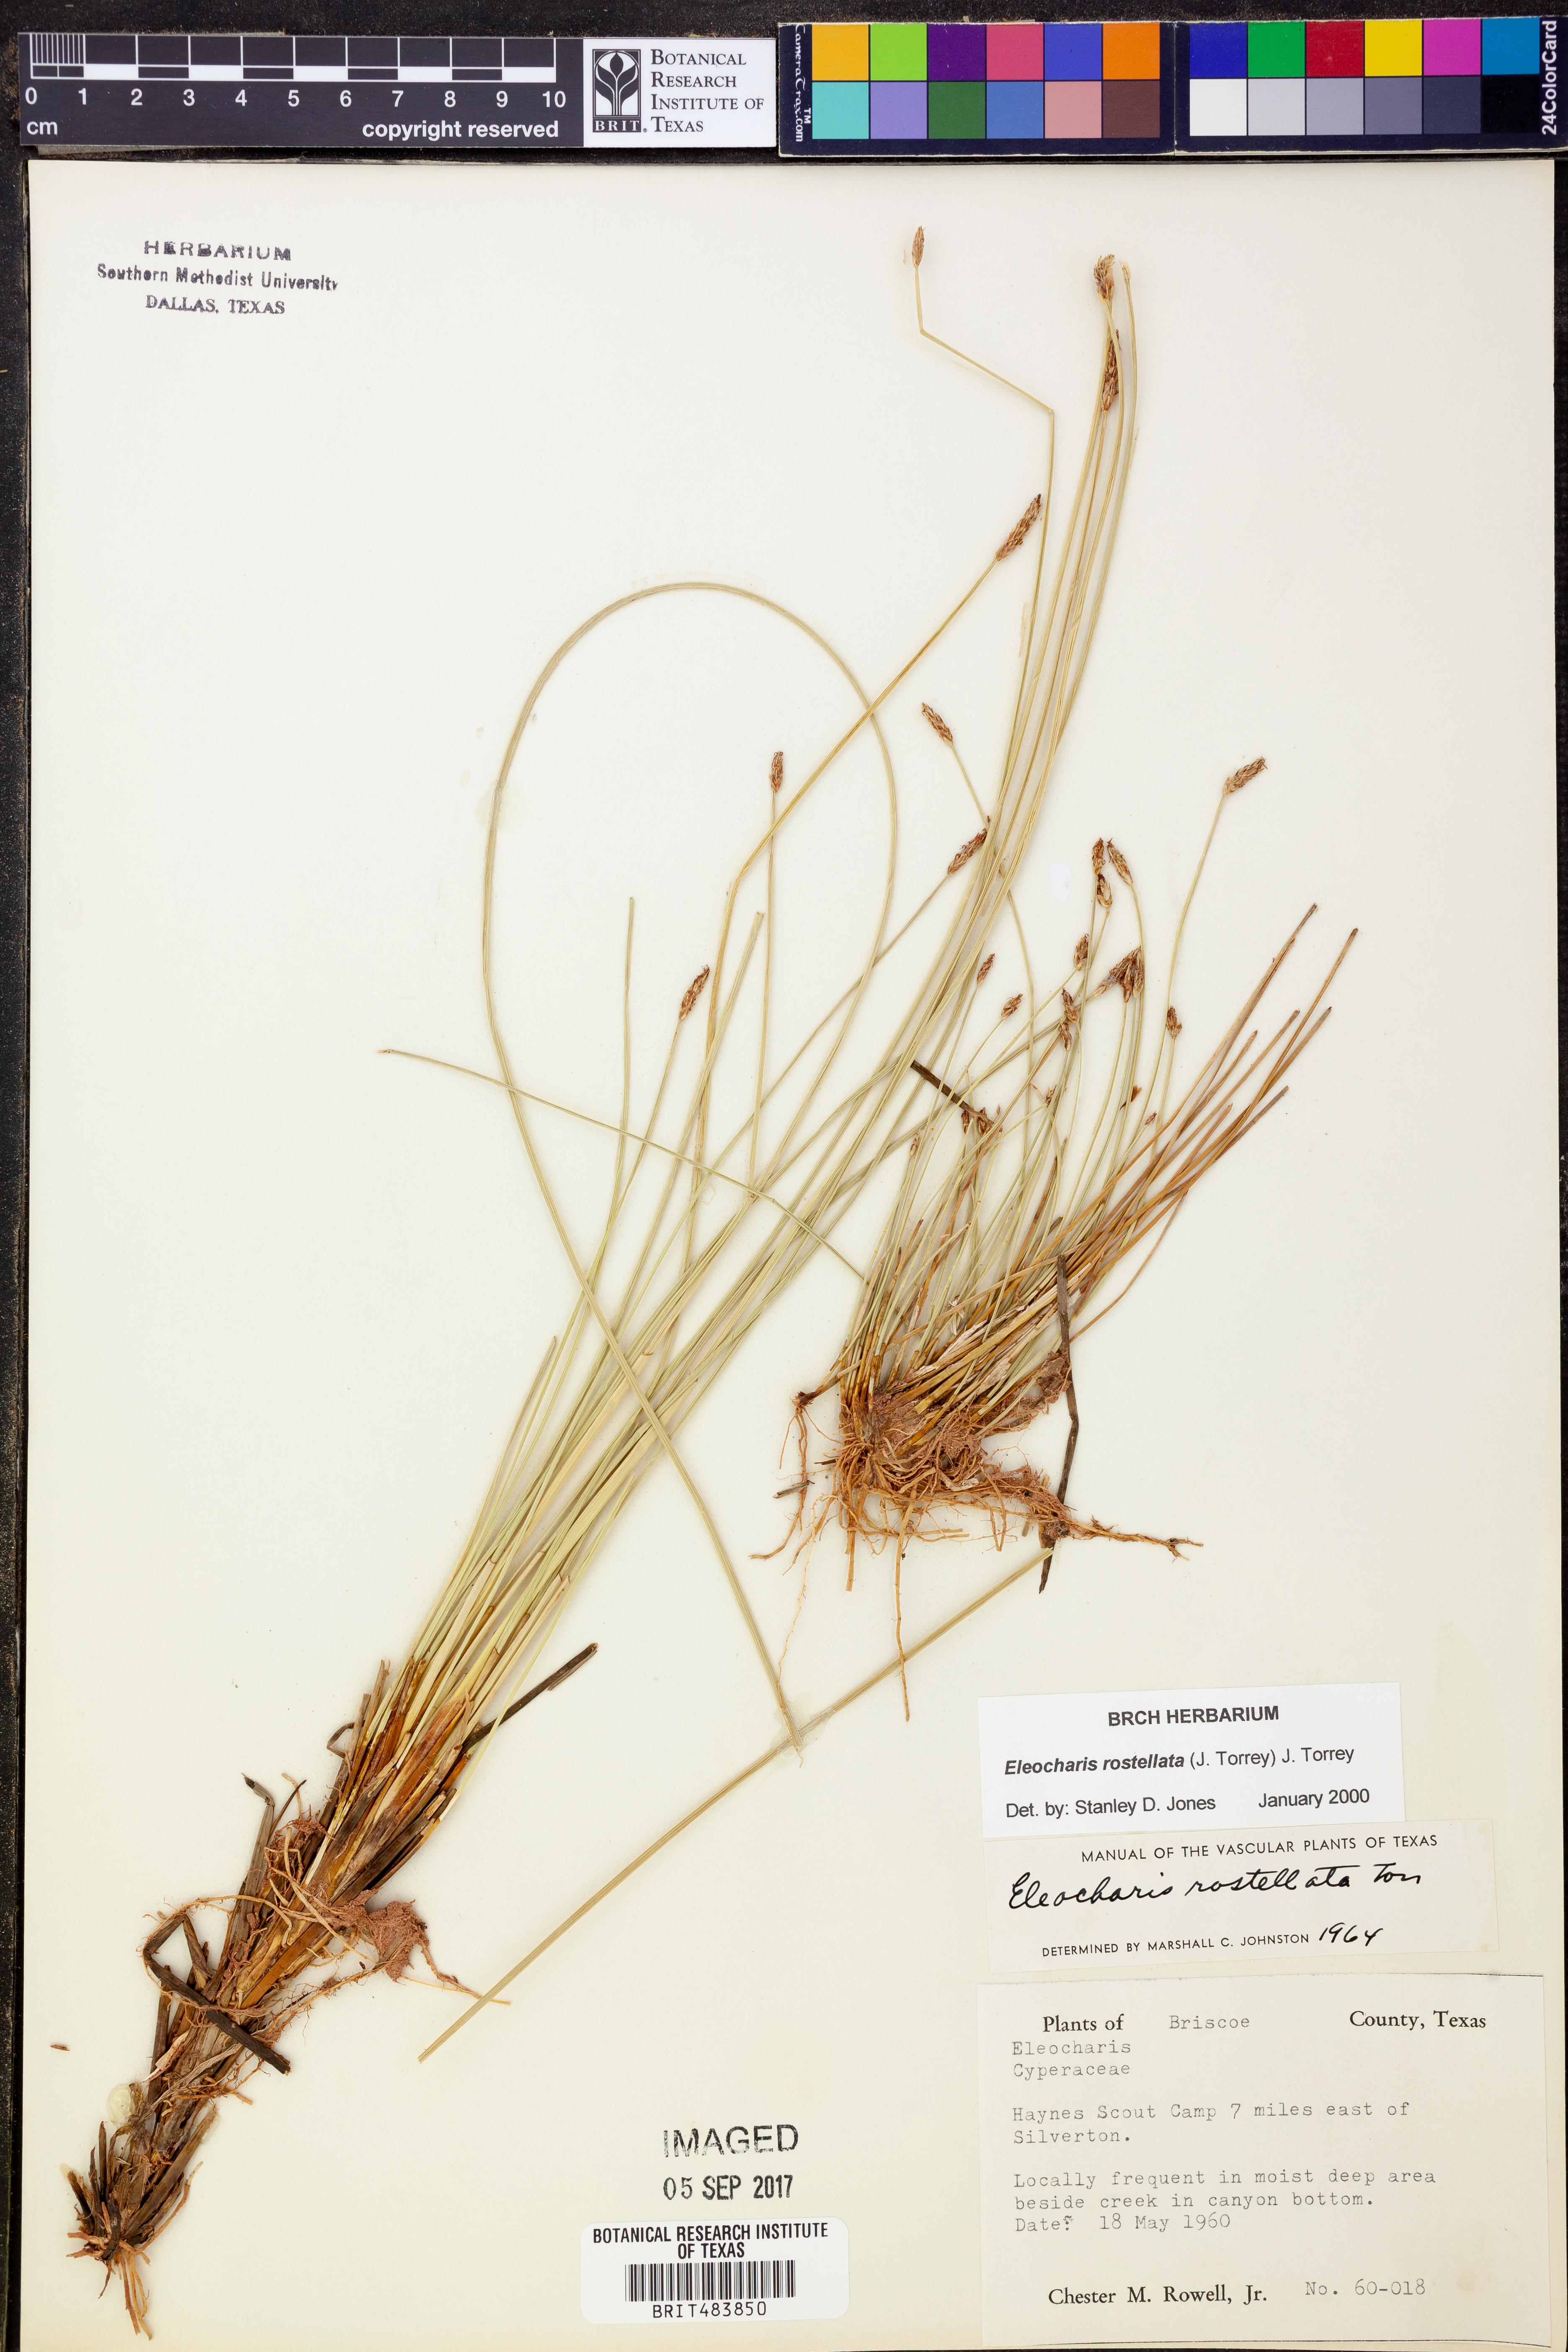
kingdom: Plantae
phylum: Tracheophyta
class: Liliopsida
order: Poales
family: Cyperaceae
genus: Eleocharis
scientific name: Eleocharis rostellata
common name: Walking sedge
